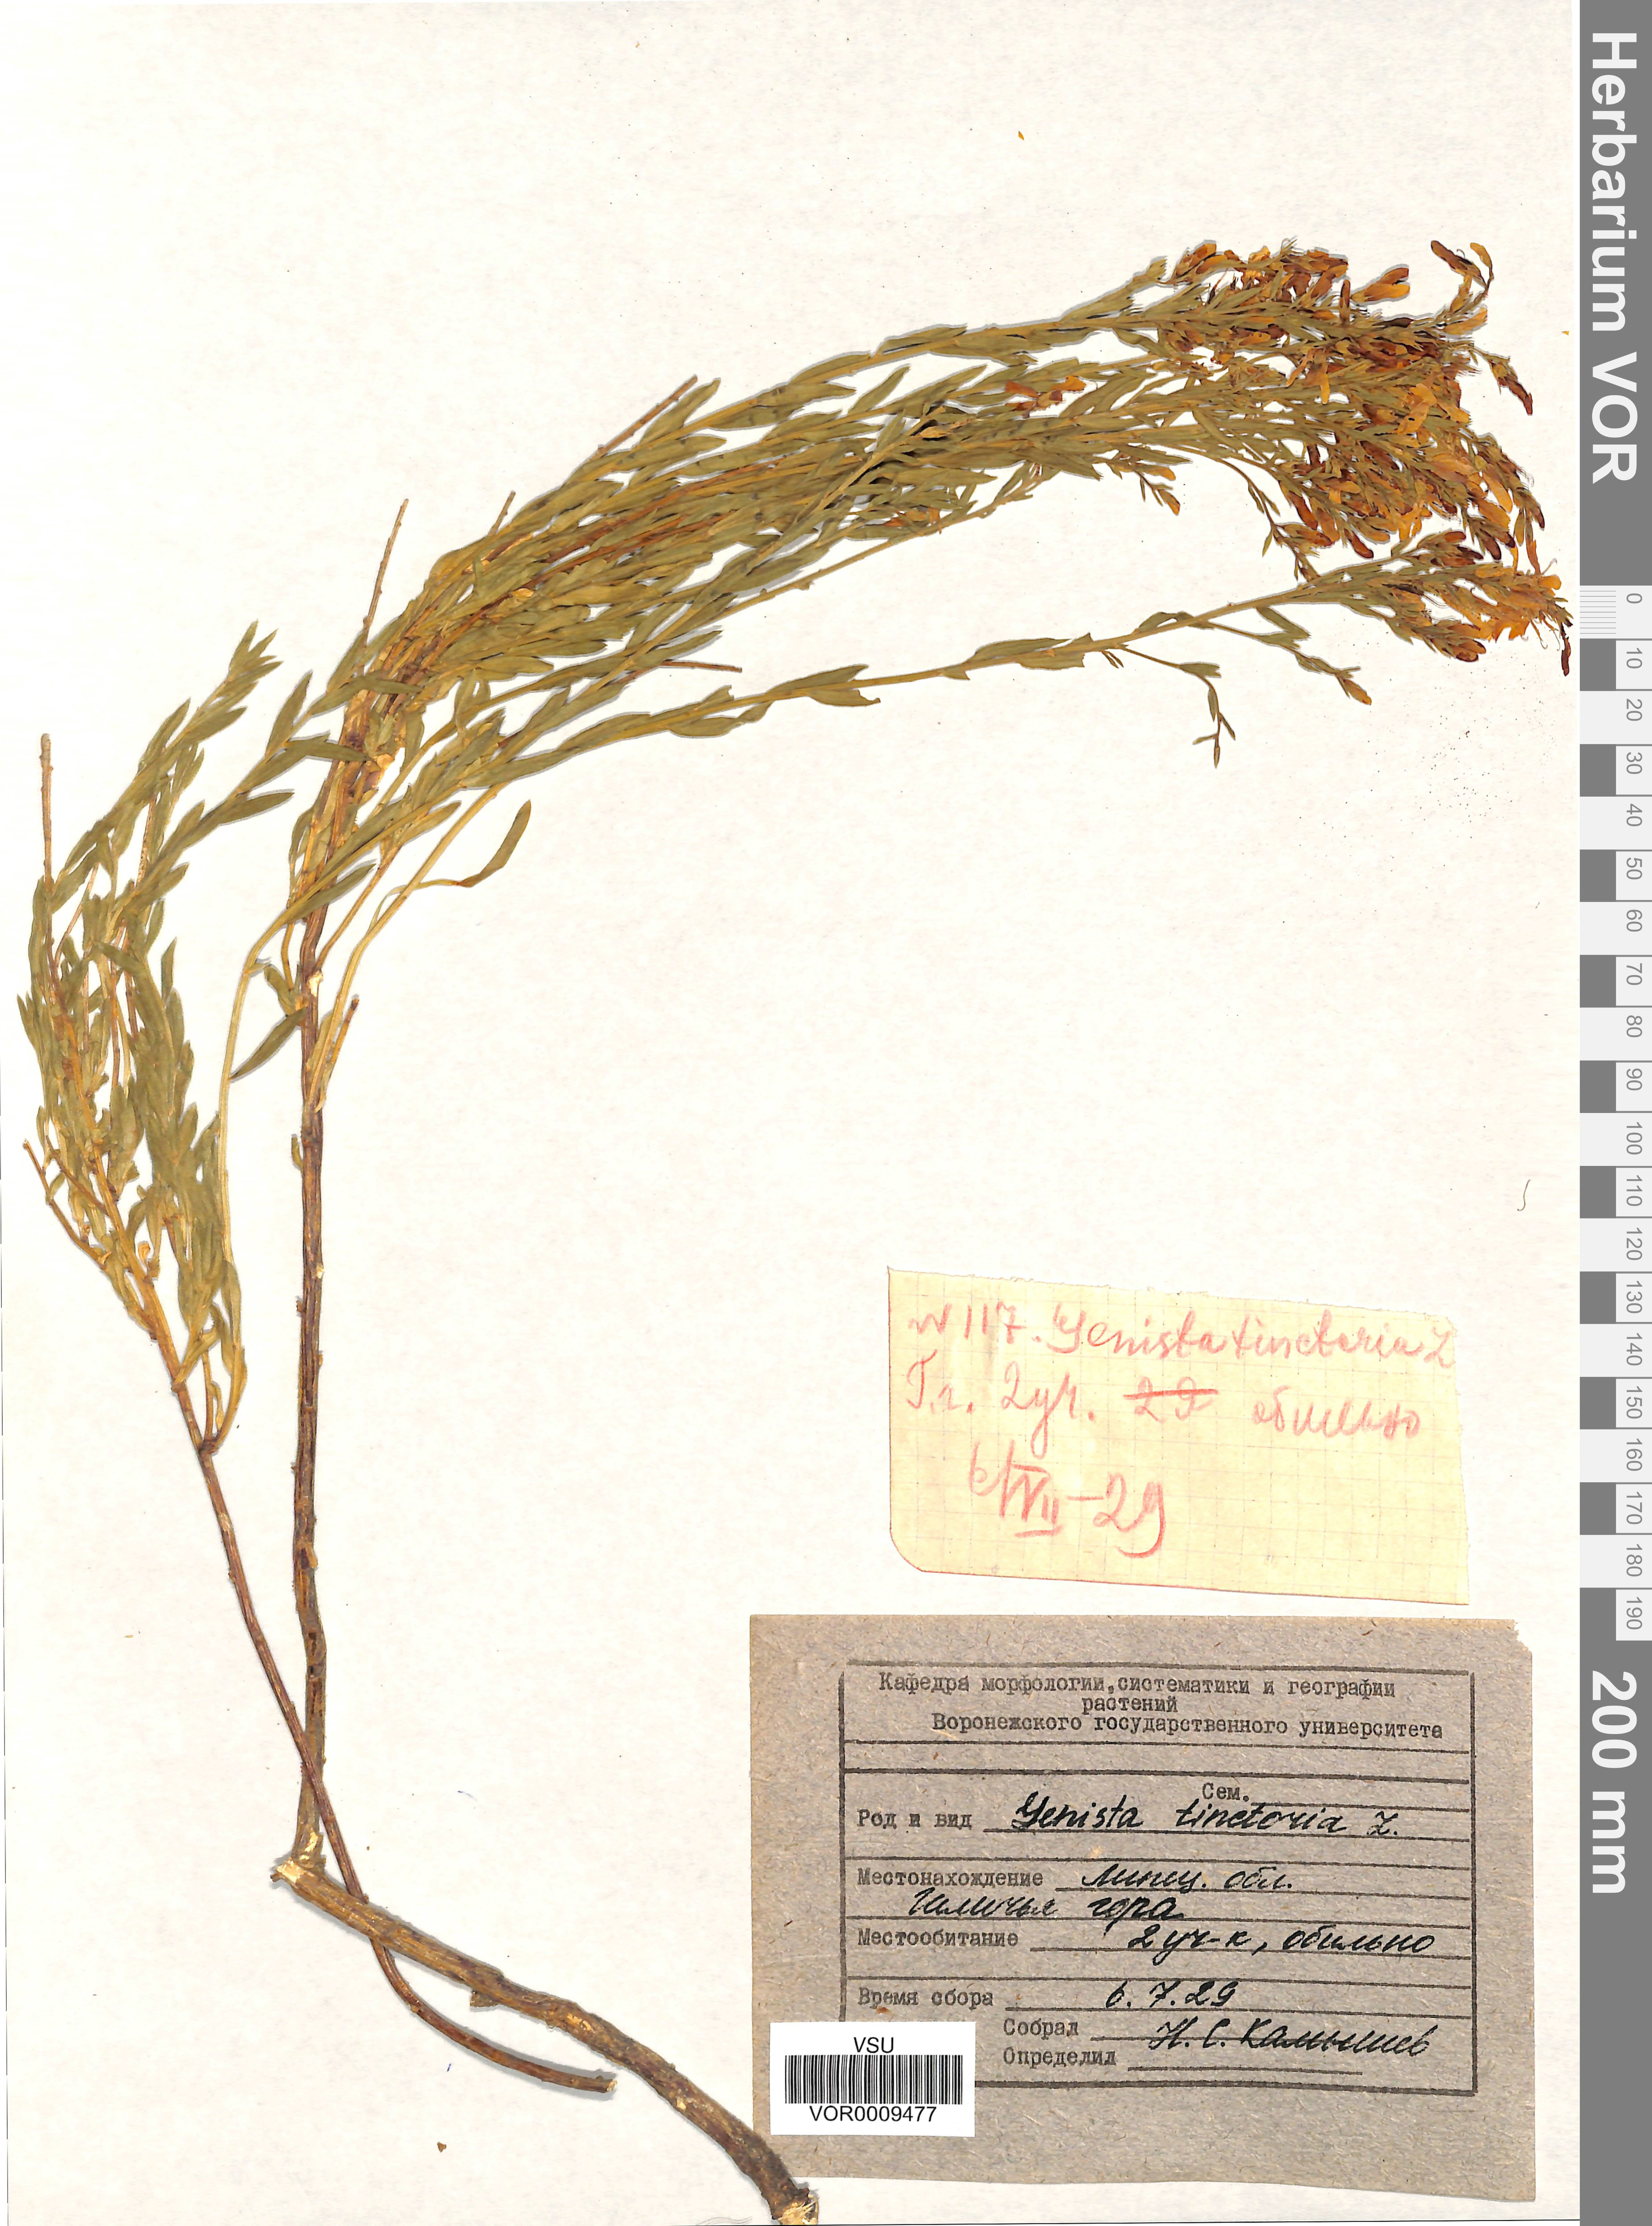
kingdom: Plantae
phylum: Tracheophyta
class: Magnoliopsida
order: Fabales
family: Fabaceae
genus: Genista
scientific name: Genista tinctoria
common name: Dyer's greenweed
